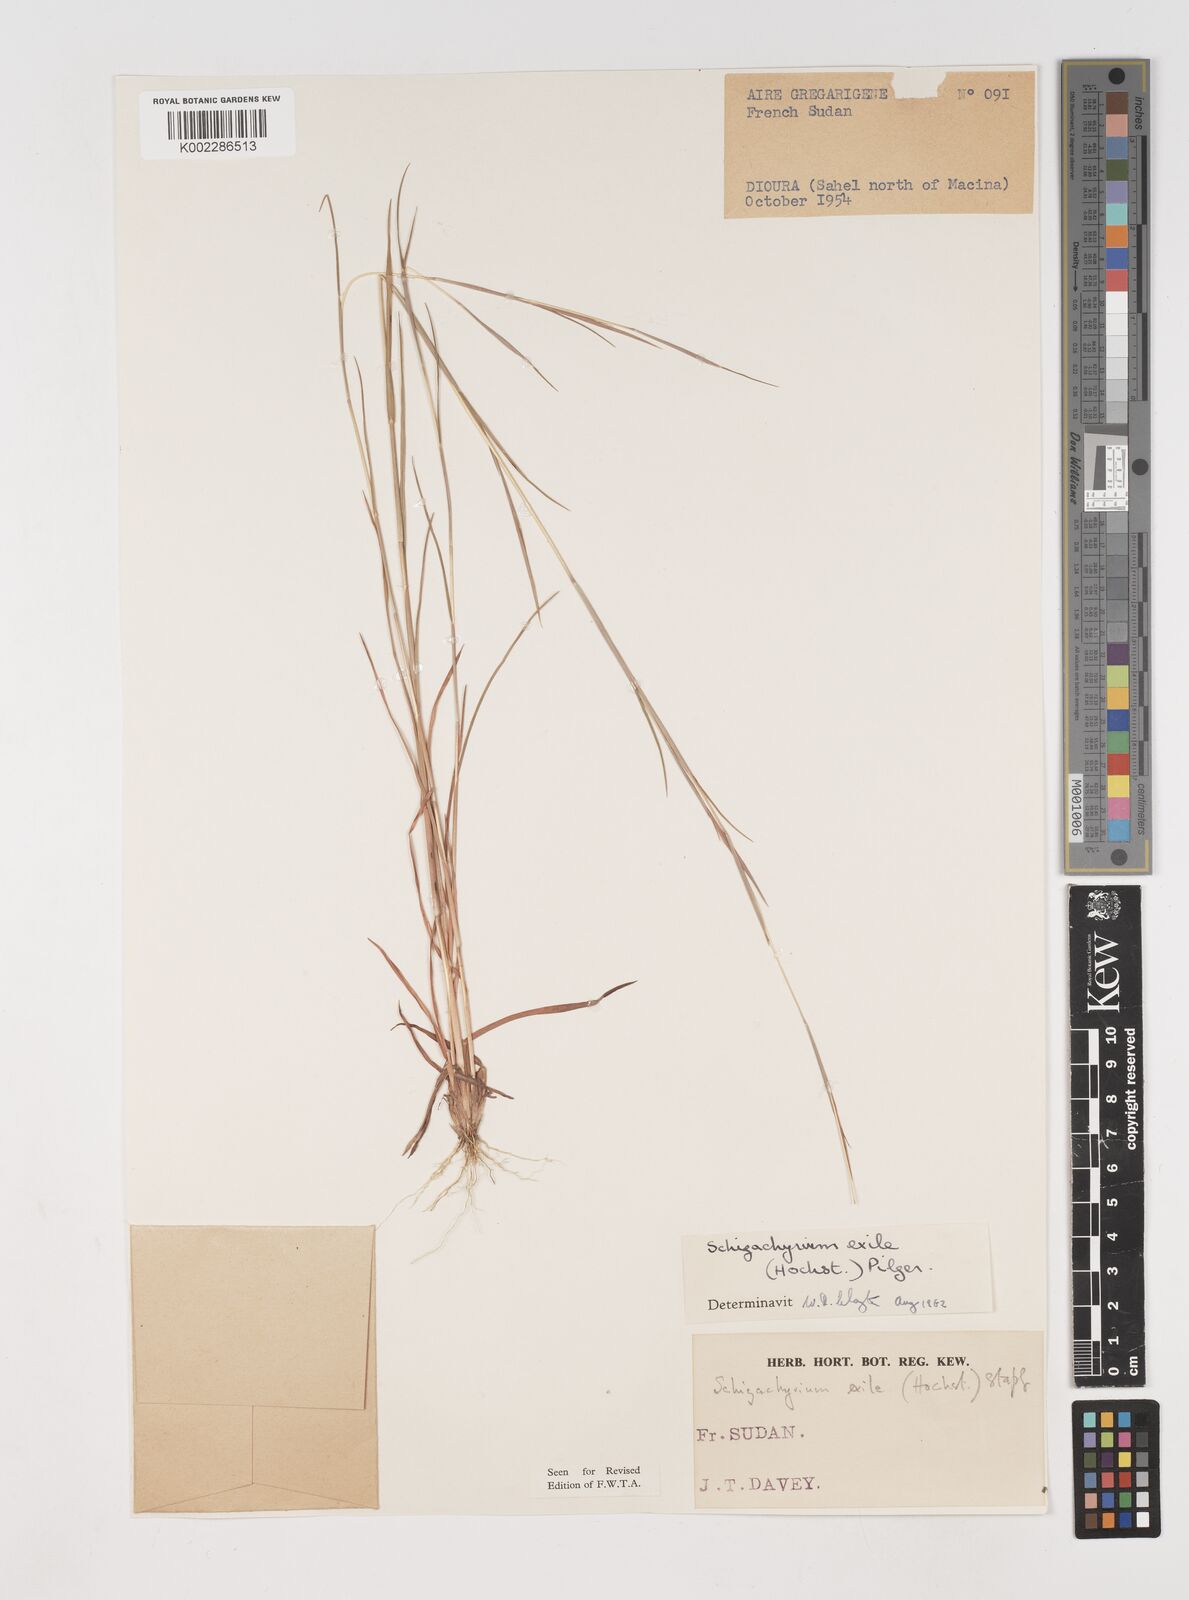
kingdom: Plantae
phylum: Tracheophyta
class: Liliopsida
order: Poales
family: Poaceae
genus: Schizachyrium
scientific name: Schizachyrium exile
